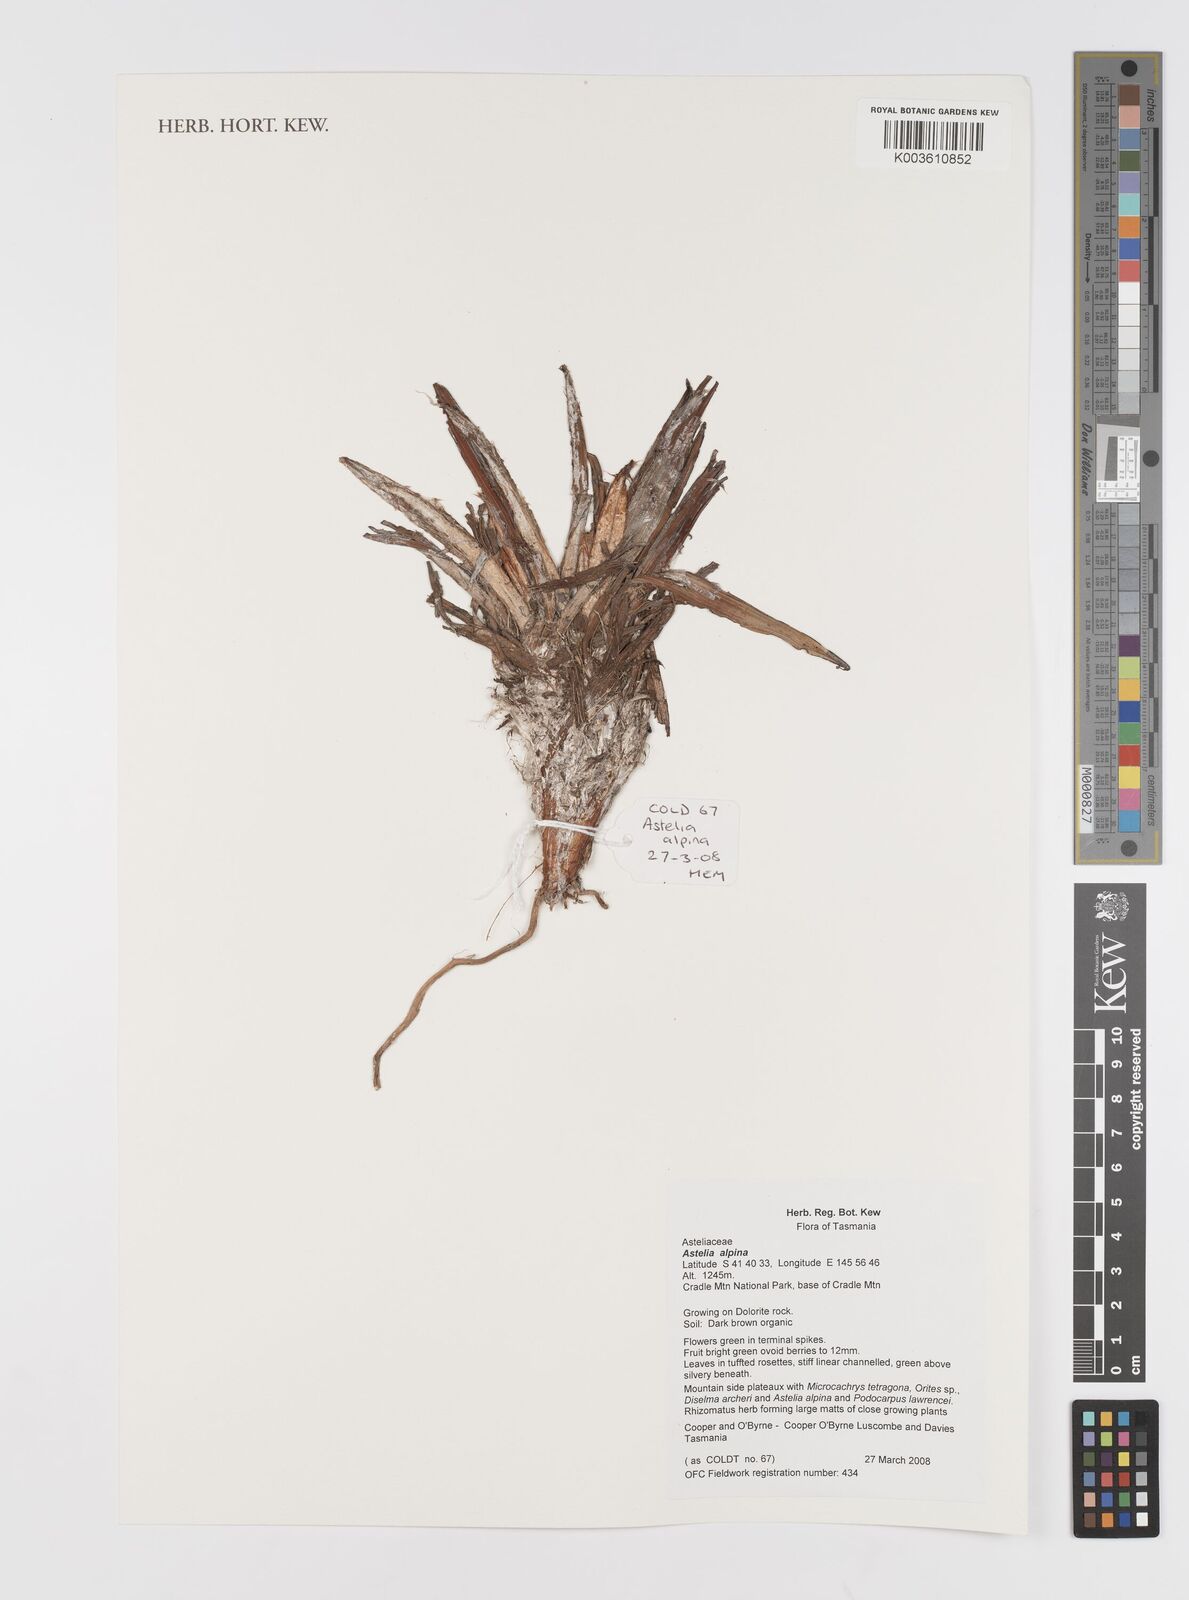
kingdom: Plantae
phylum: Tracheophyta
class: Liliopsida
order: Asparagales
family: Asteliaceae
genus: Astelia
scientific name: Astelia alpina
